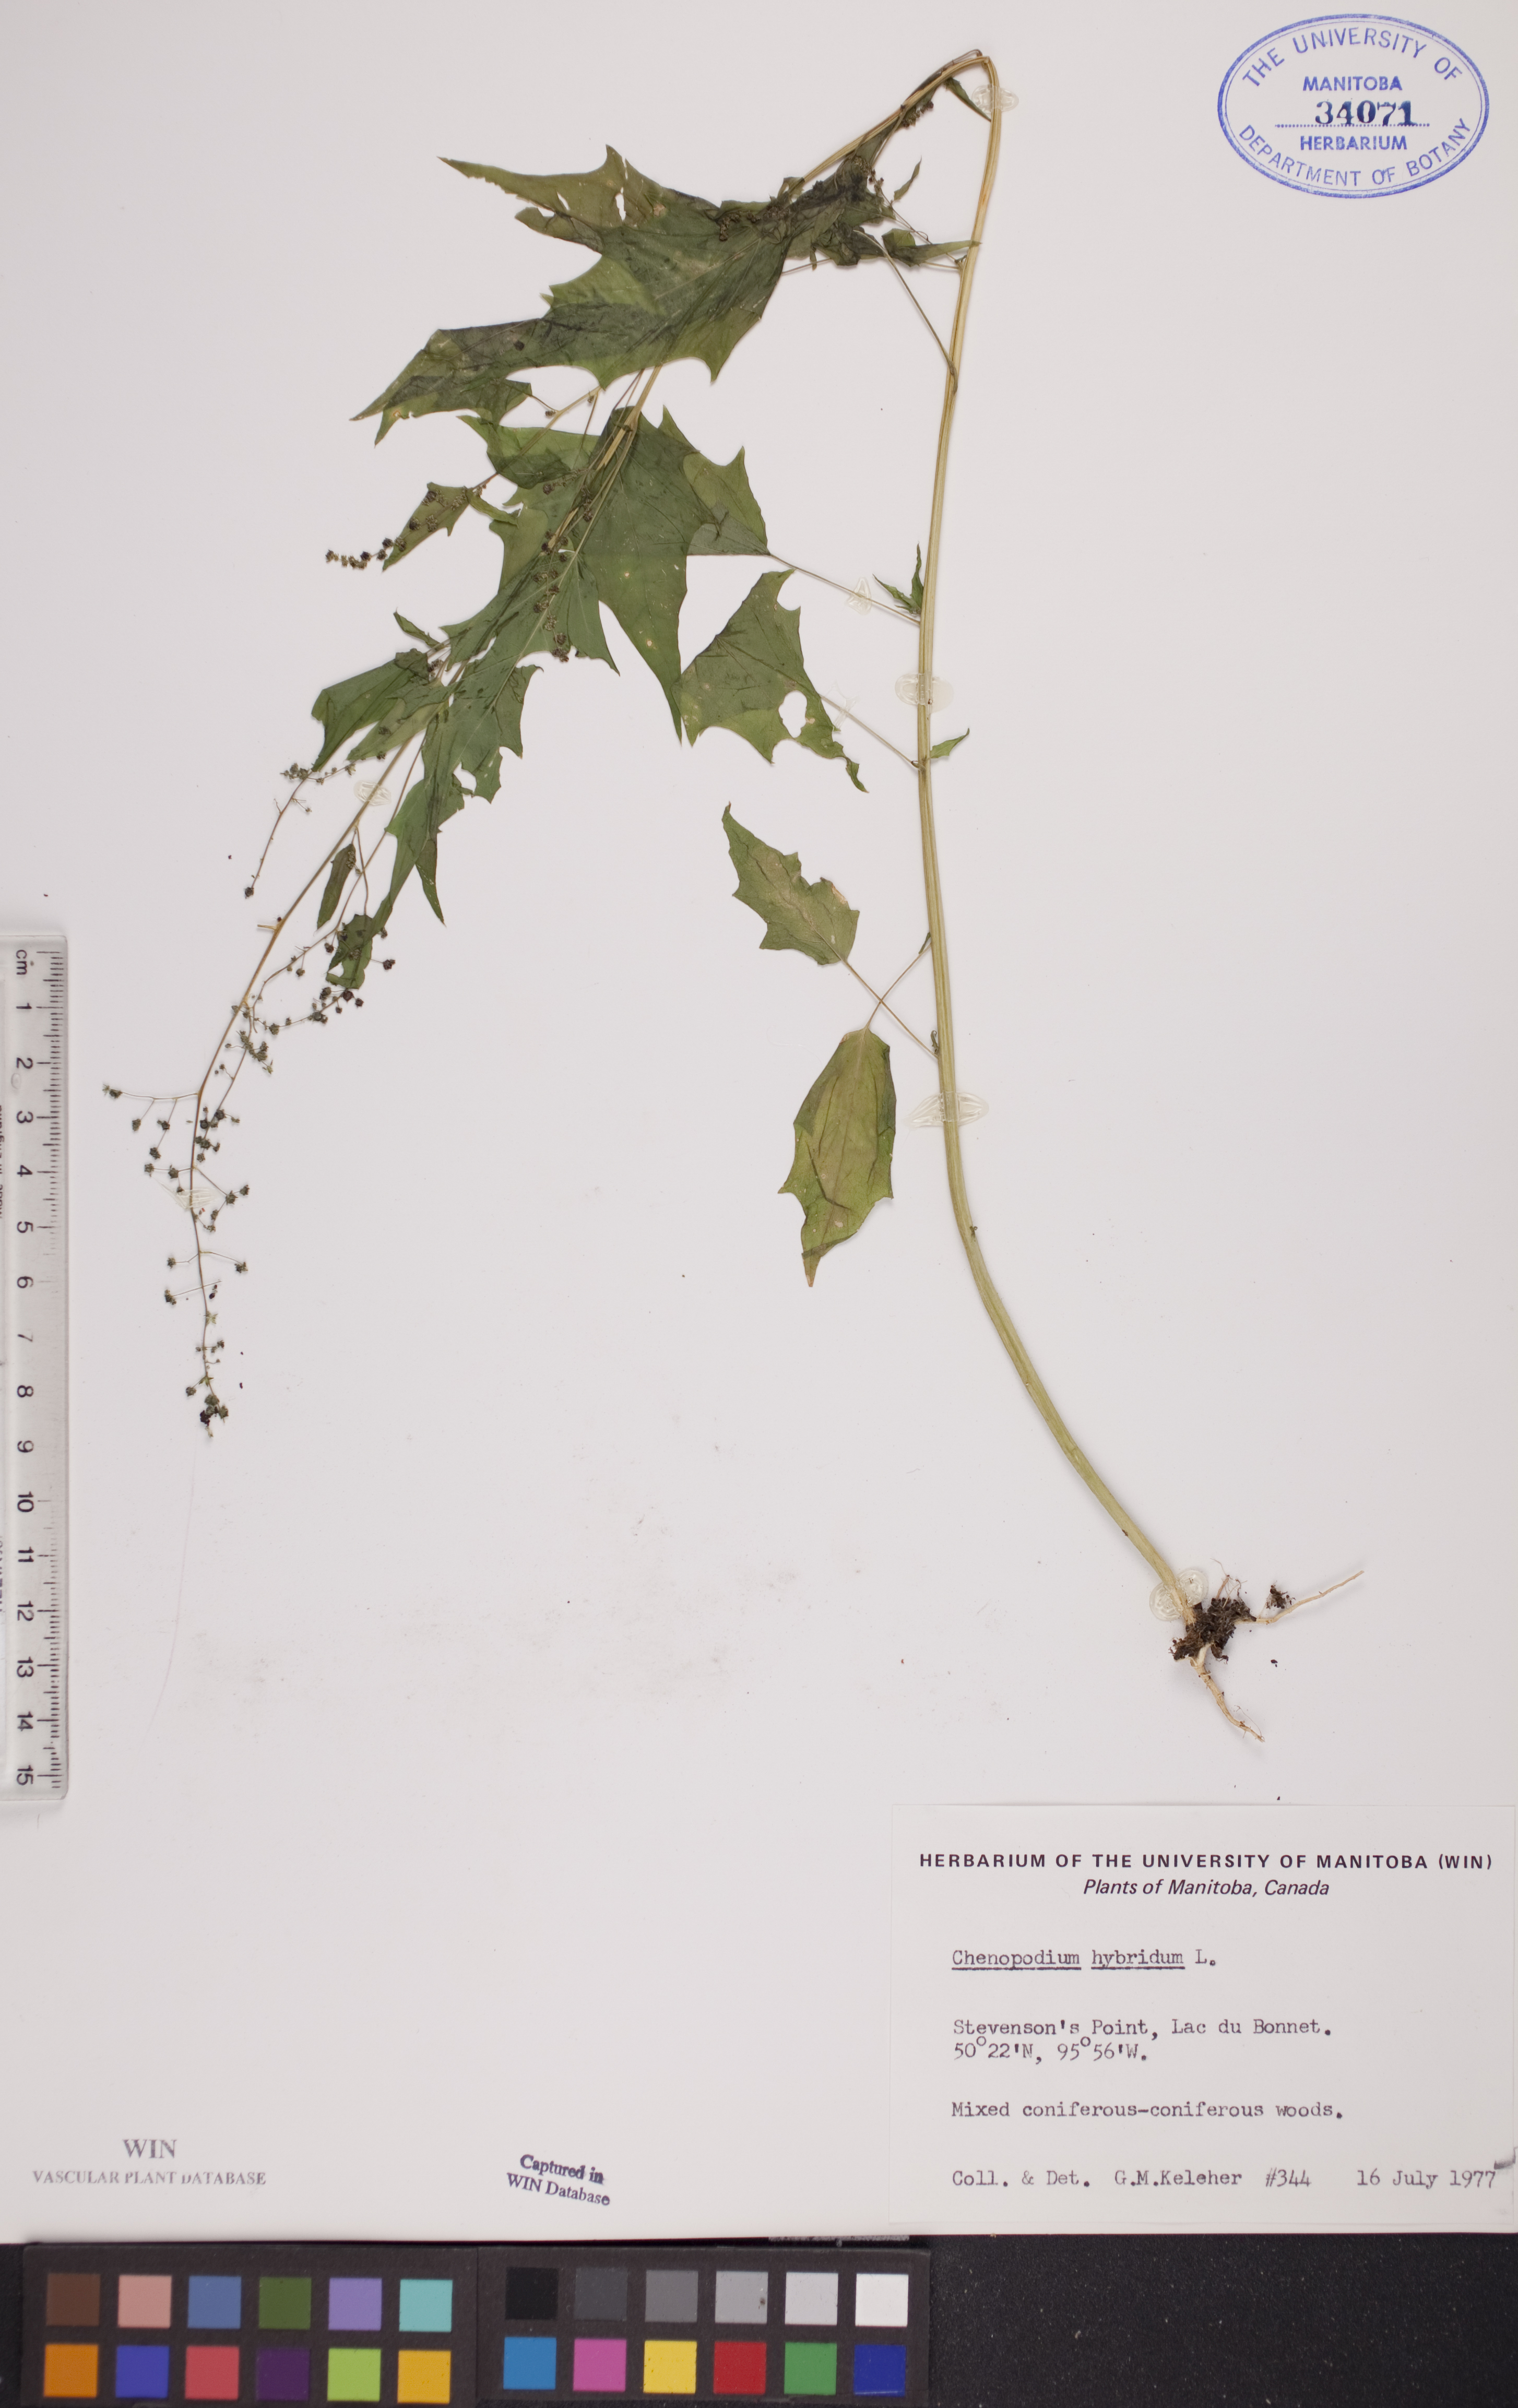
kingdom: Plantae
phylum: Tracheophyta
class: Magnoliopsida
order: Caryophyllales
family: Amaranthaceae
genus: Chenopodiastrum
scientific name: Chenopodiastrum hybridum
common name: Mapleleaf goosefoot
